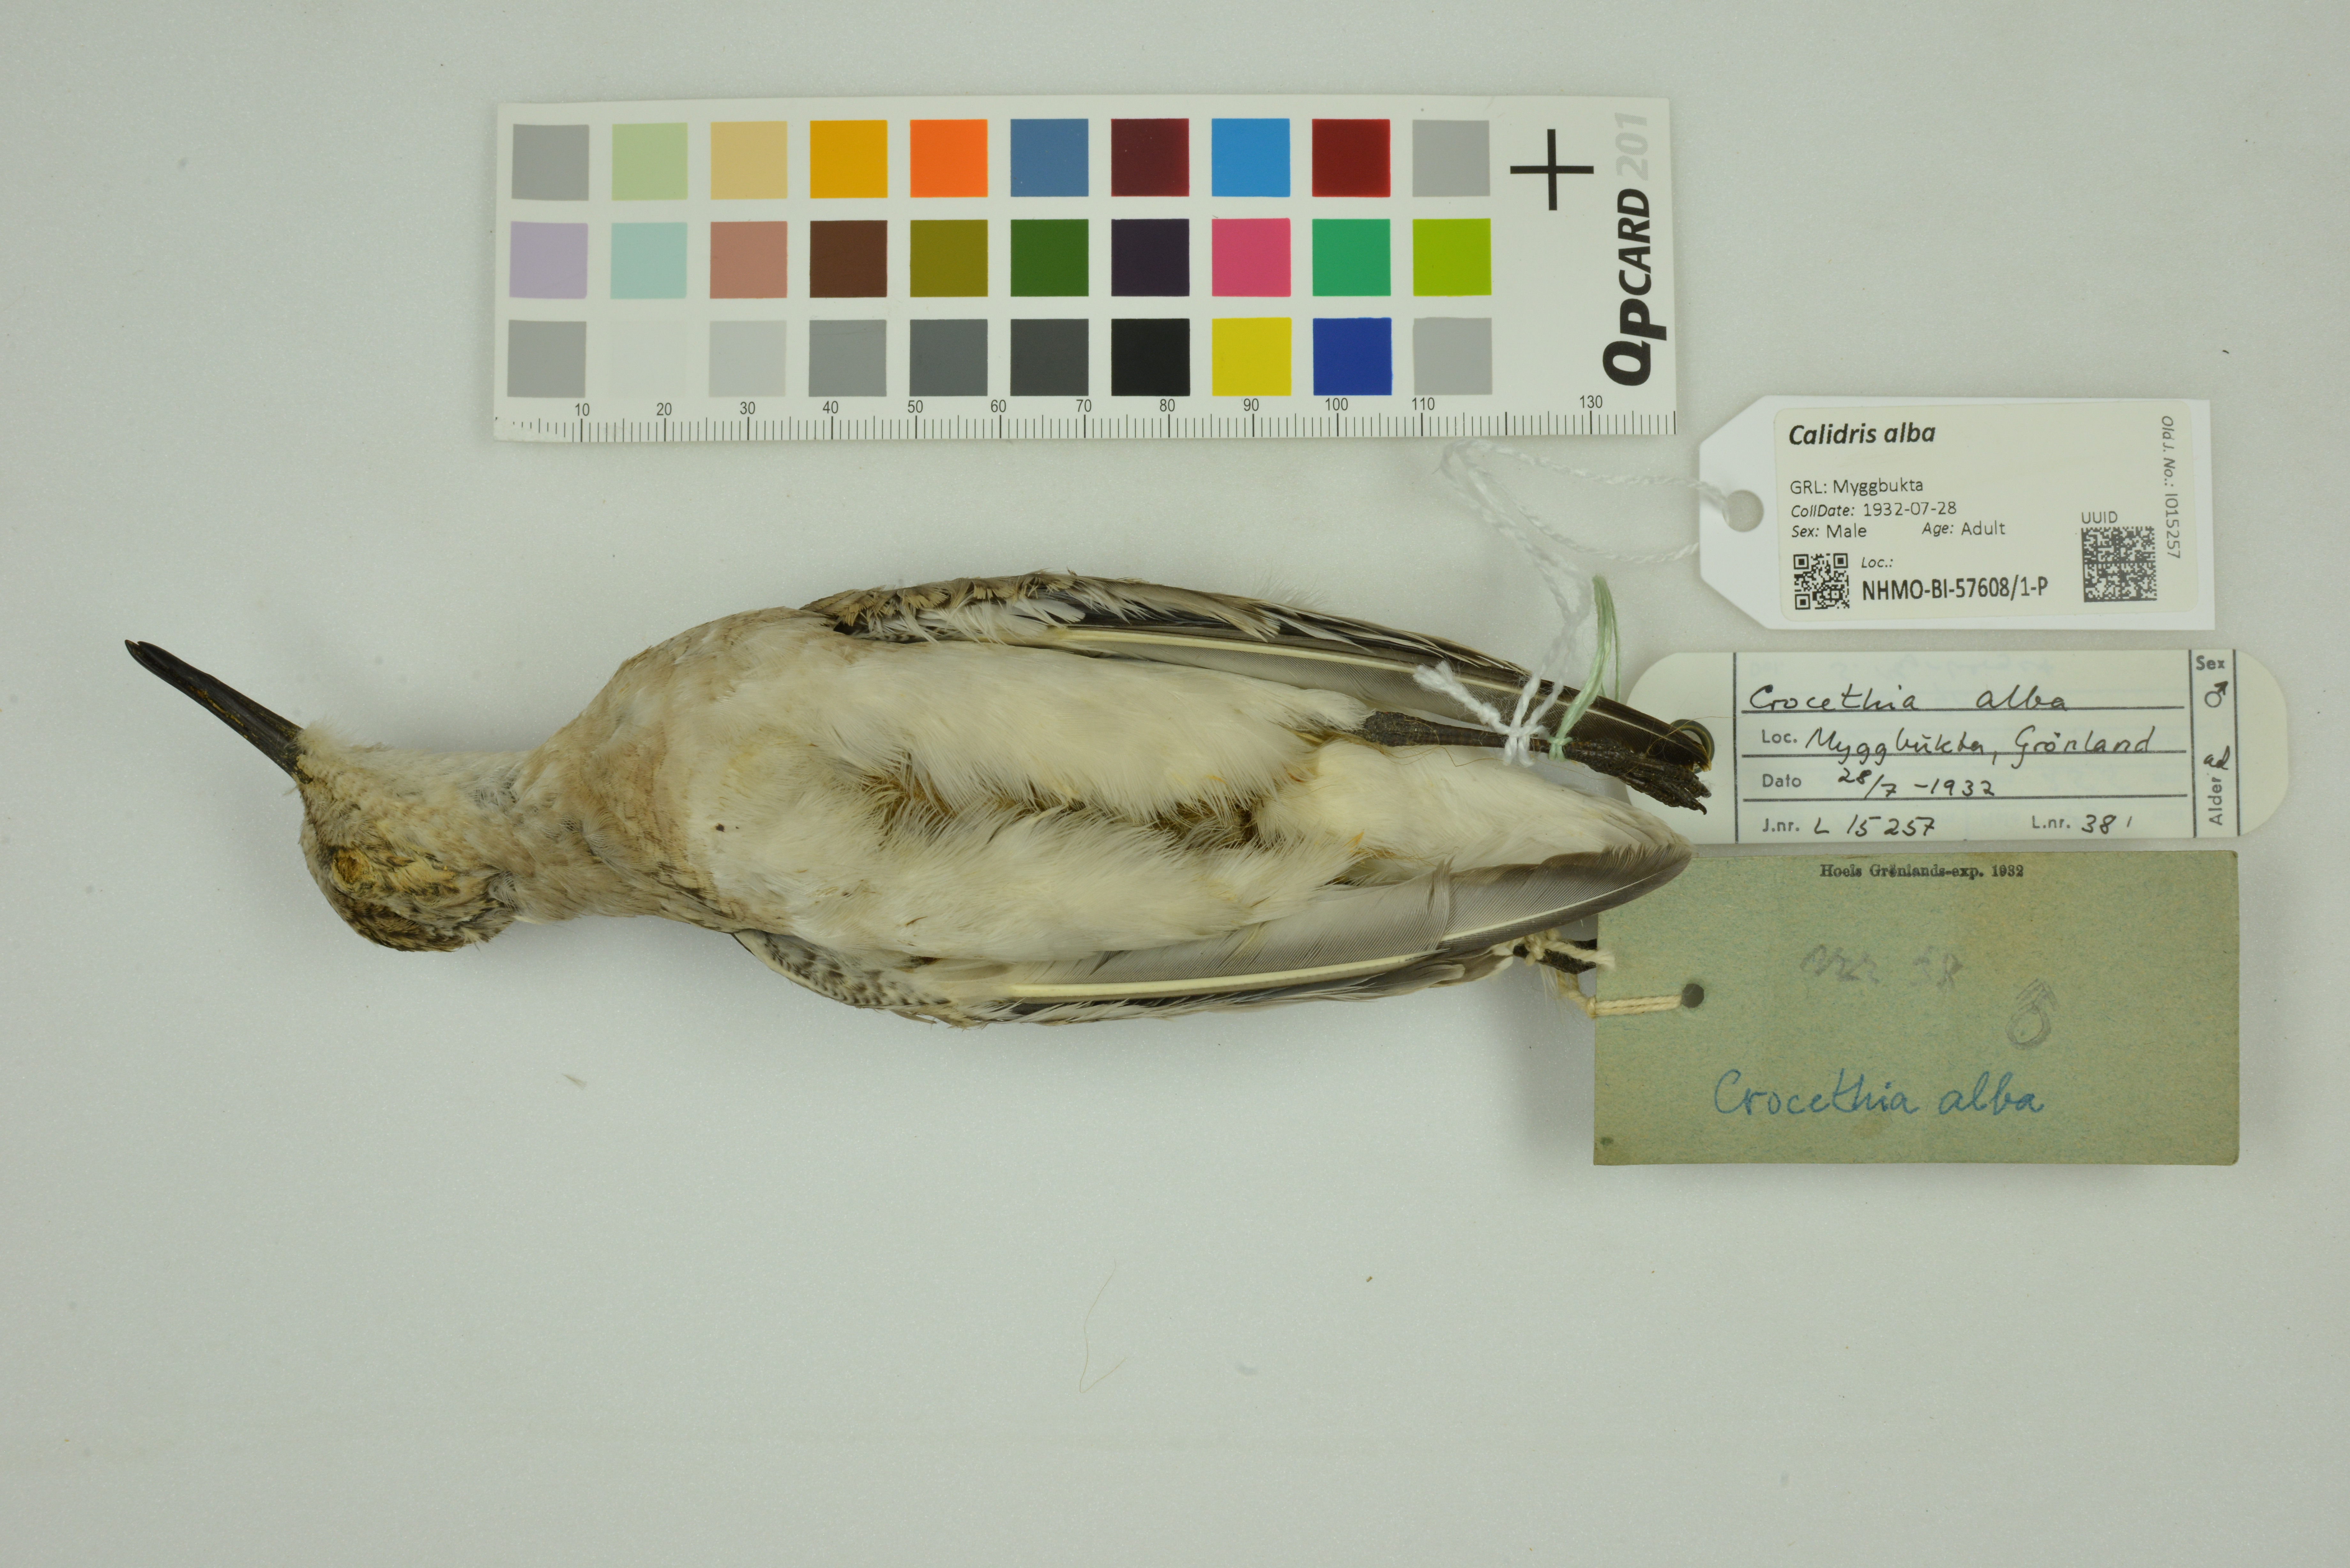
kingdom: Animalia
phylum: Chordata
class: Aves
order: Charadriiformes
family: Scolopacidae
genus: Calidris
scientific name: Calidris alba
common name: Sanderling
